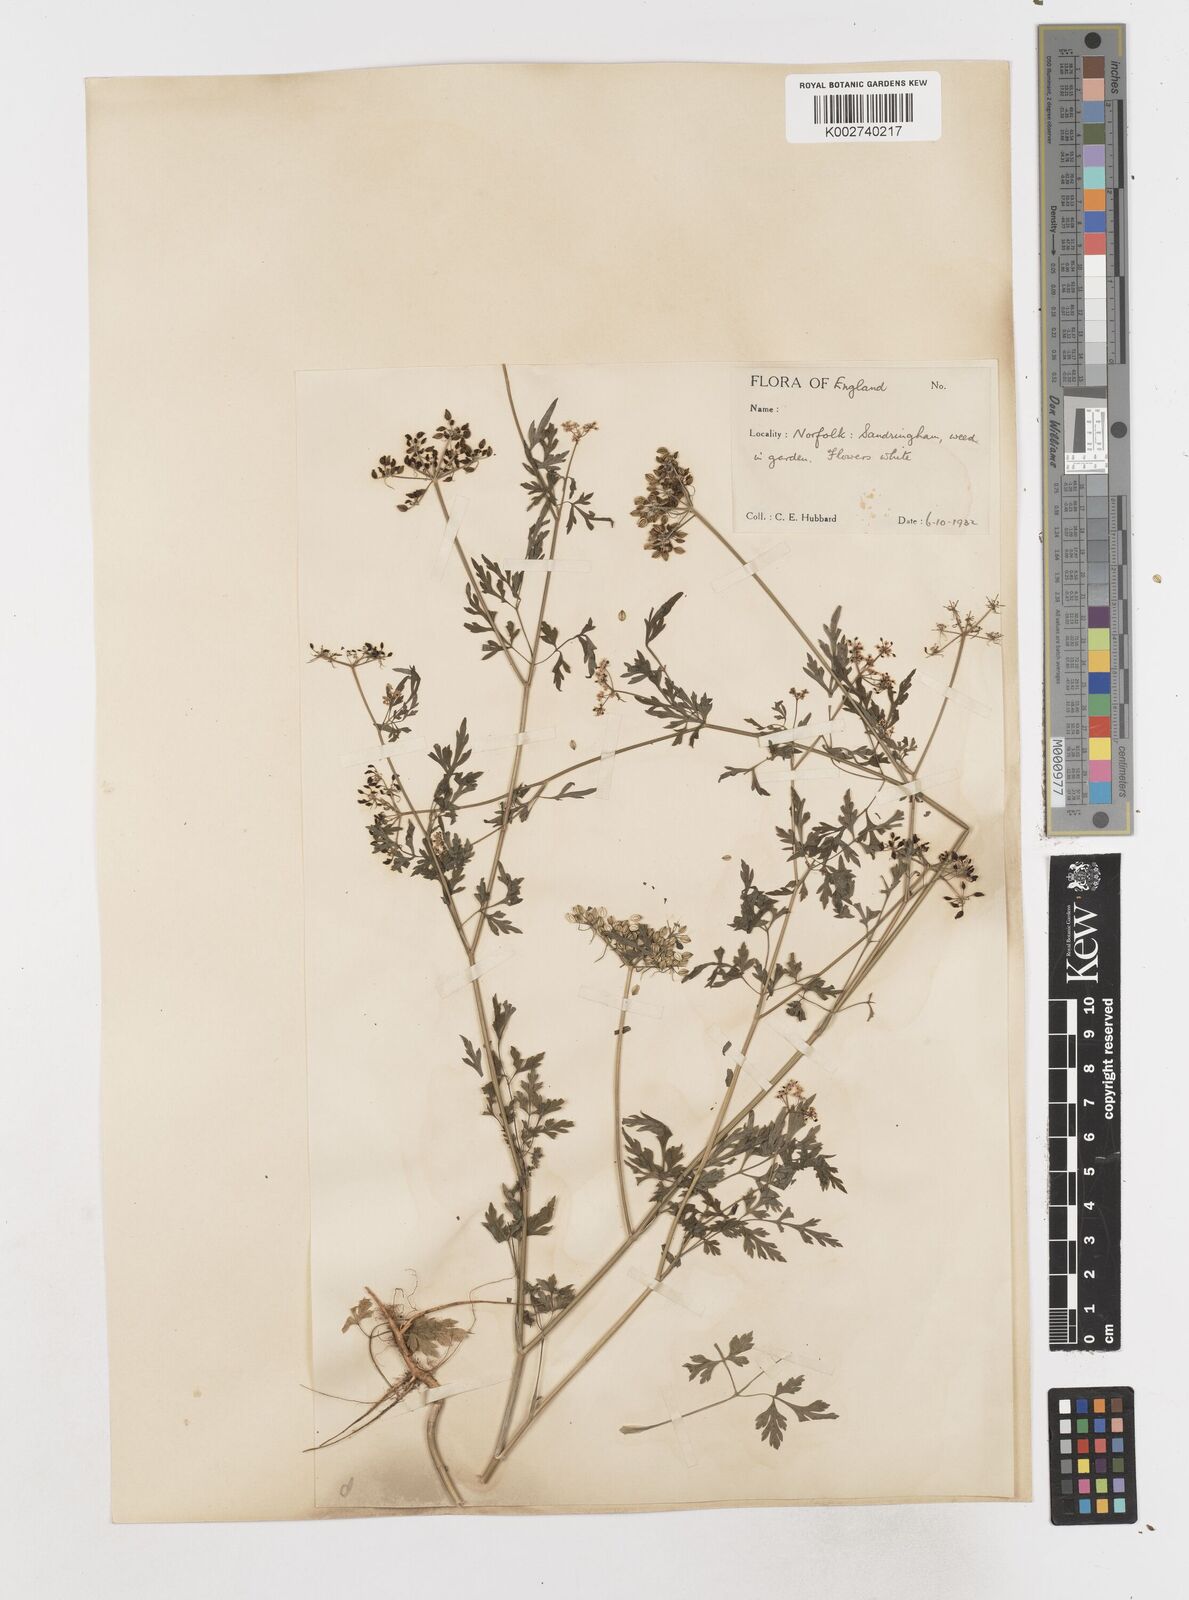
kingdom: Plantae
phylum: Tracheophyta
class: Magnoliopsida
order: Apiales
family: Apiaceae
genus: Aethusa
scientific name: Aethusa cynapium
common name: Fool's parsley
